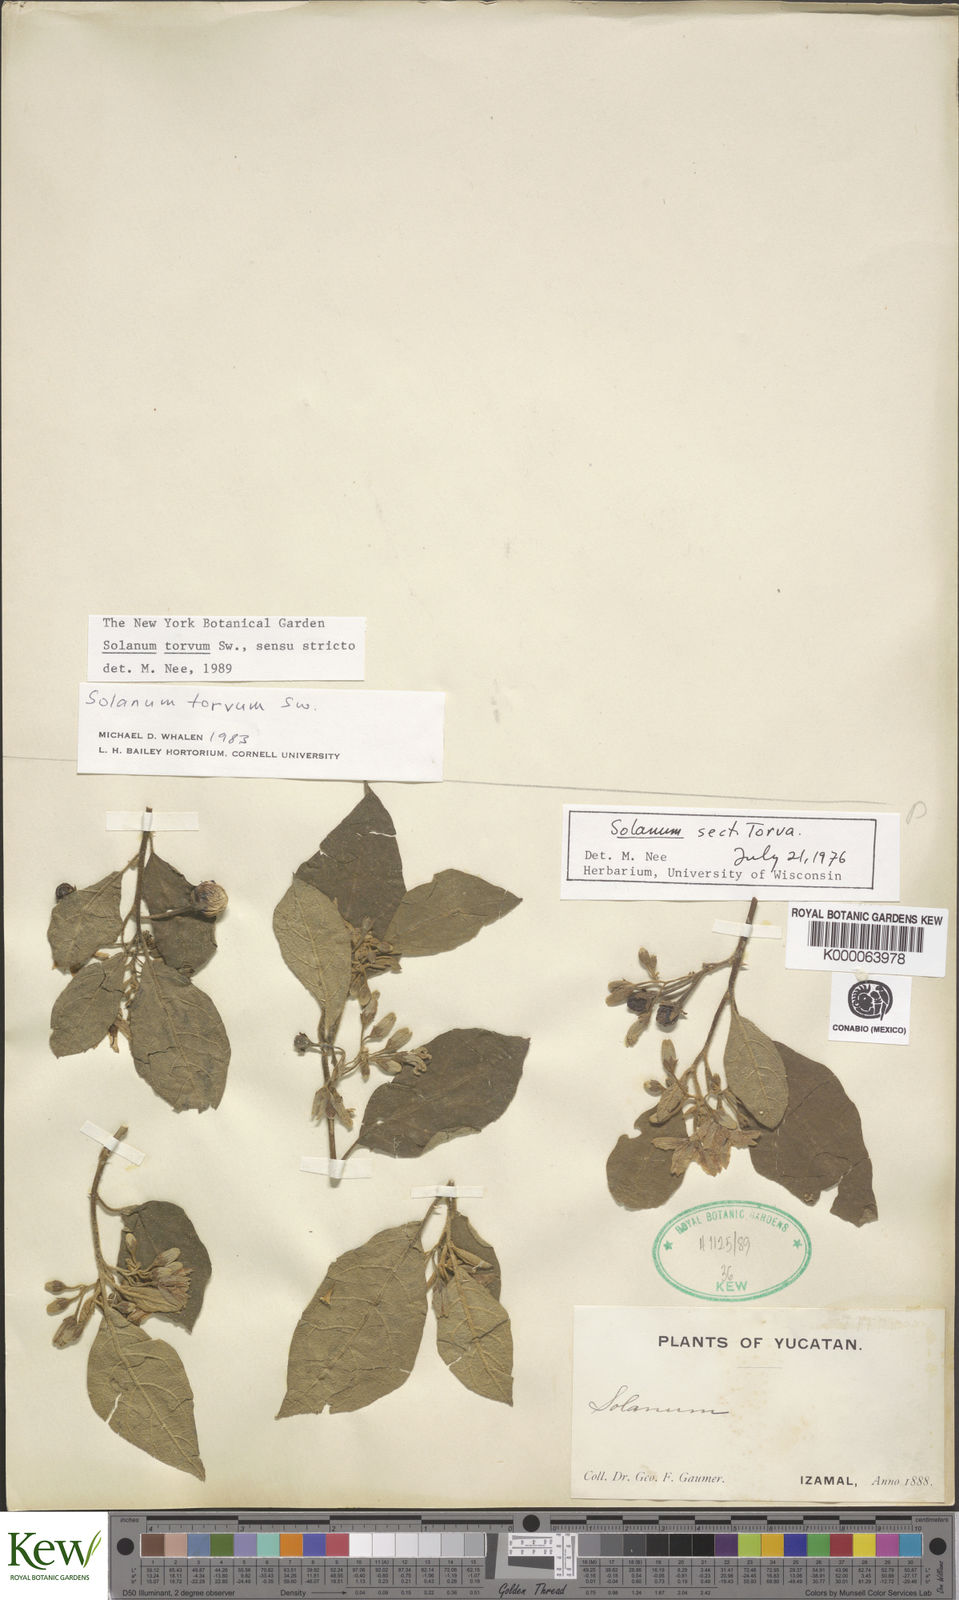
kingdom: Plantae
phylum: Tracheophyta
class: Magnoliopsida
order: Solanales
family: Solanaceae
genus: Solanum
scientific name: Solanum torvum
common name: Turkey berry
